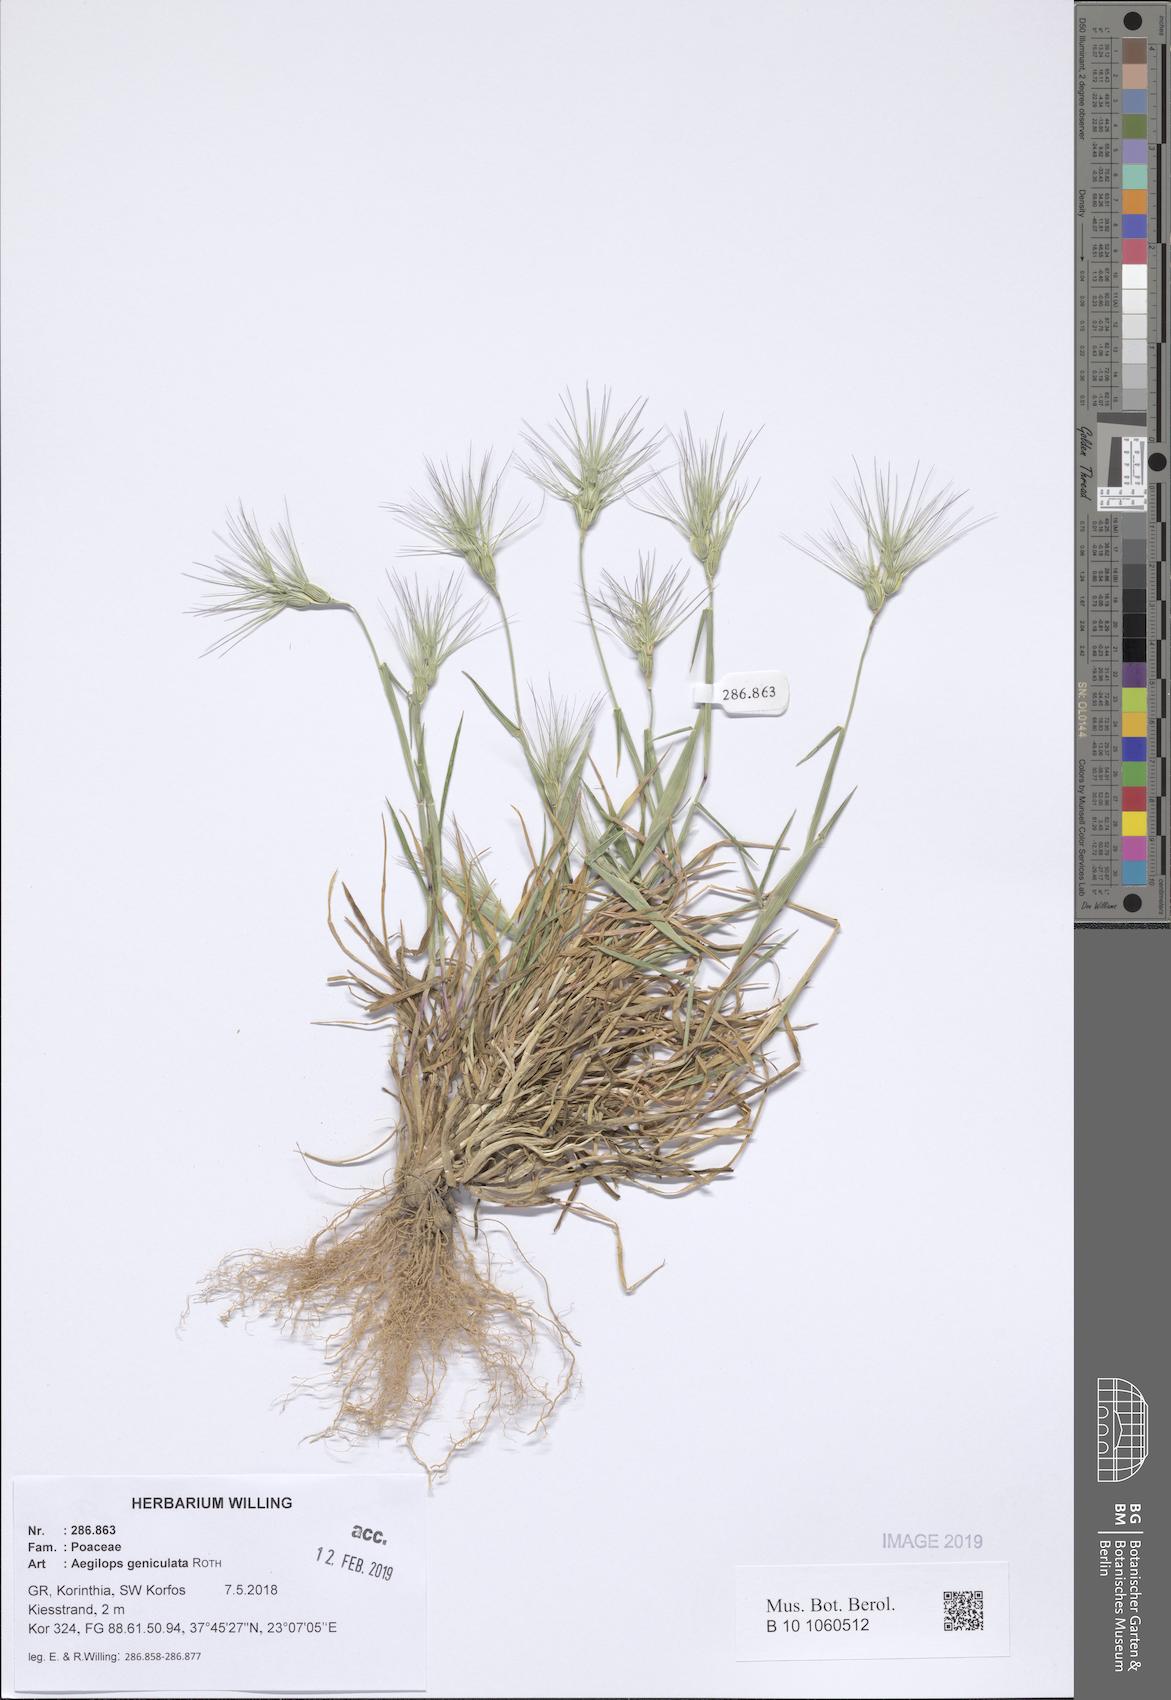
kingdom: Plantae
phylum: Tracheophyta
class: Liliopsida
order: Poales
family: Poaceae
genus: Aegilops
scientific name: Aegilops geniculata
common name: Ovate goat grass
